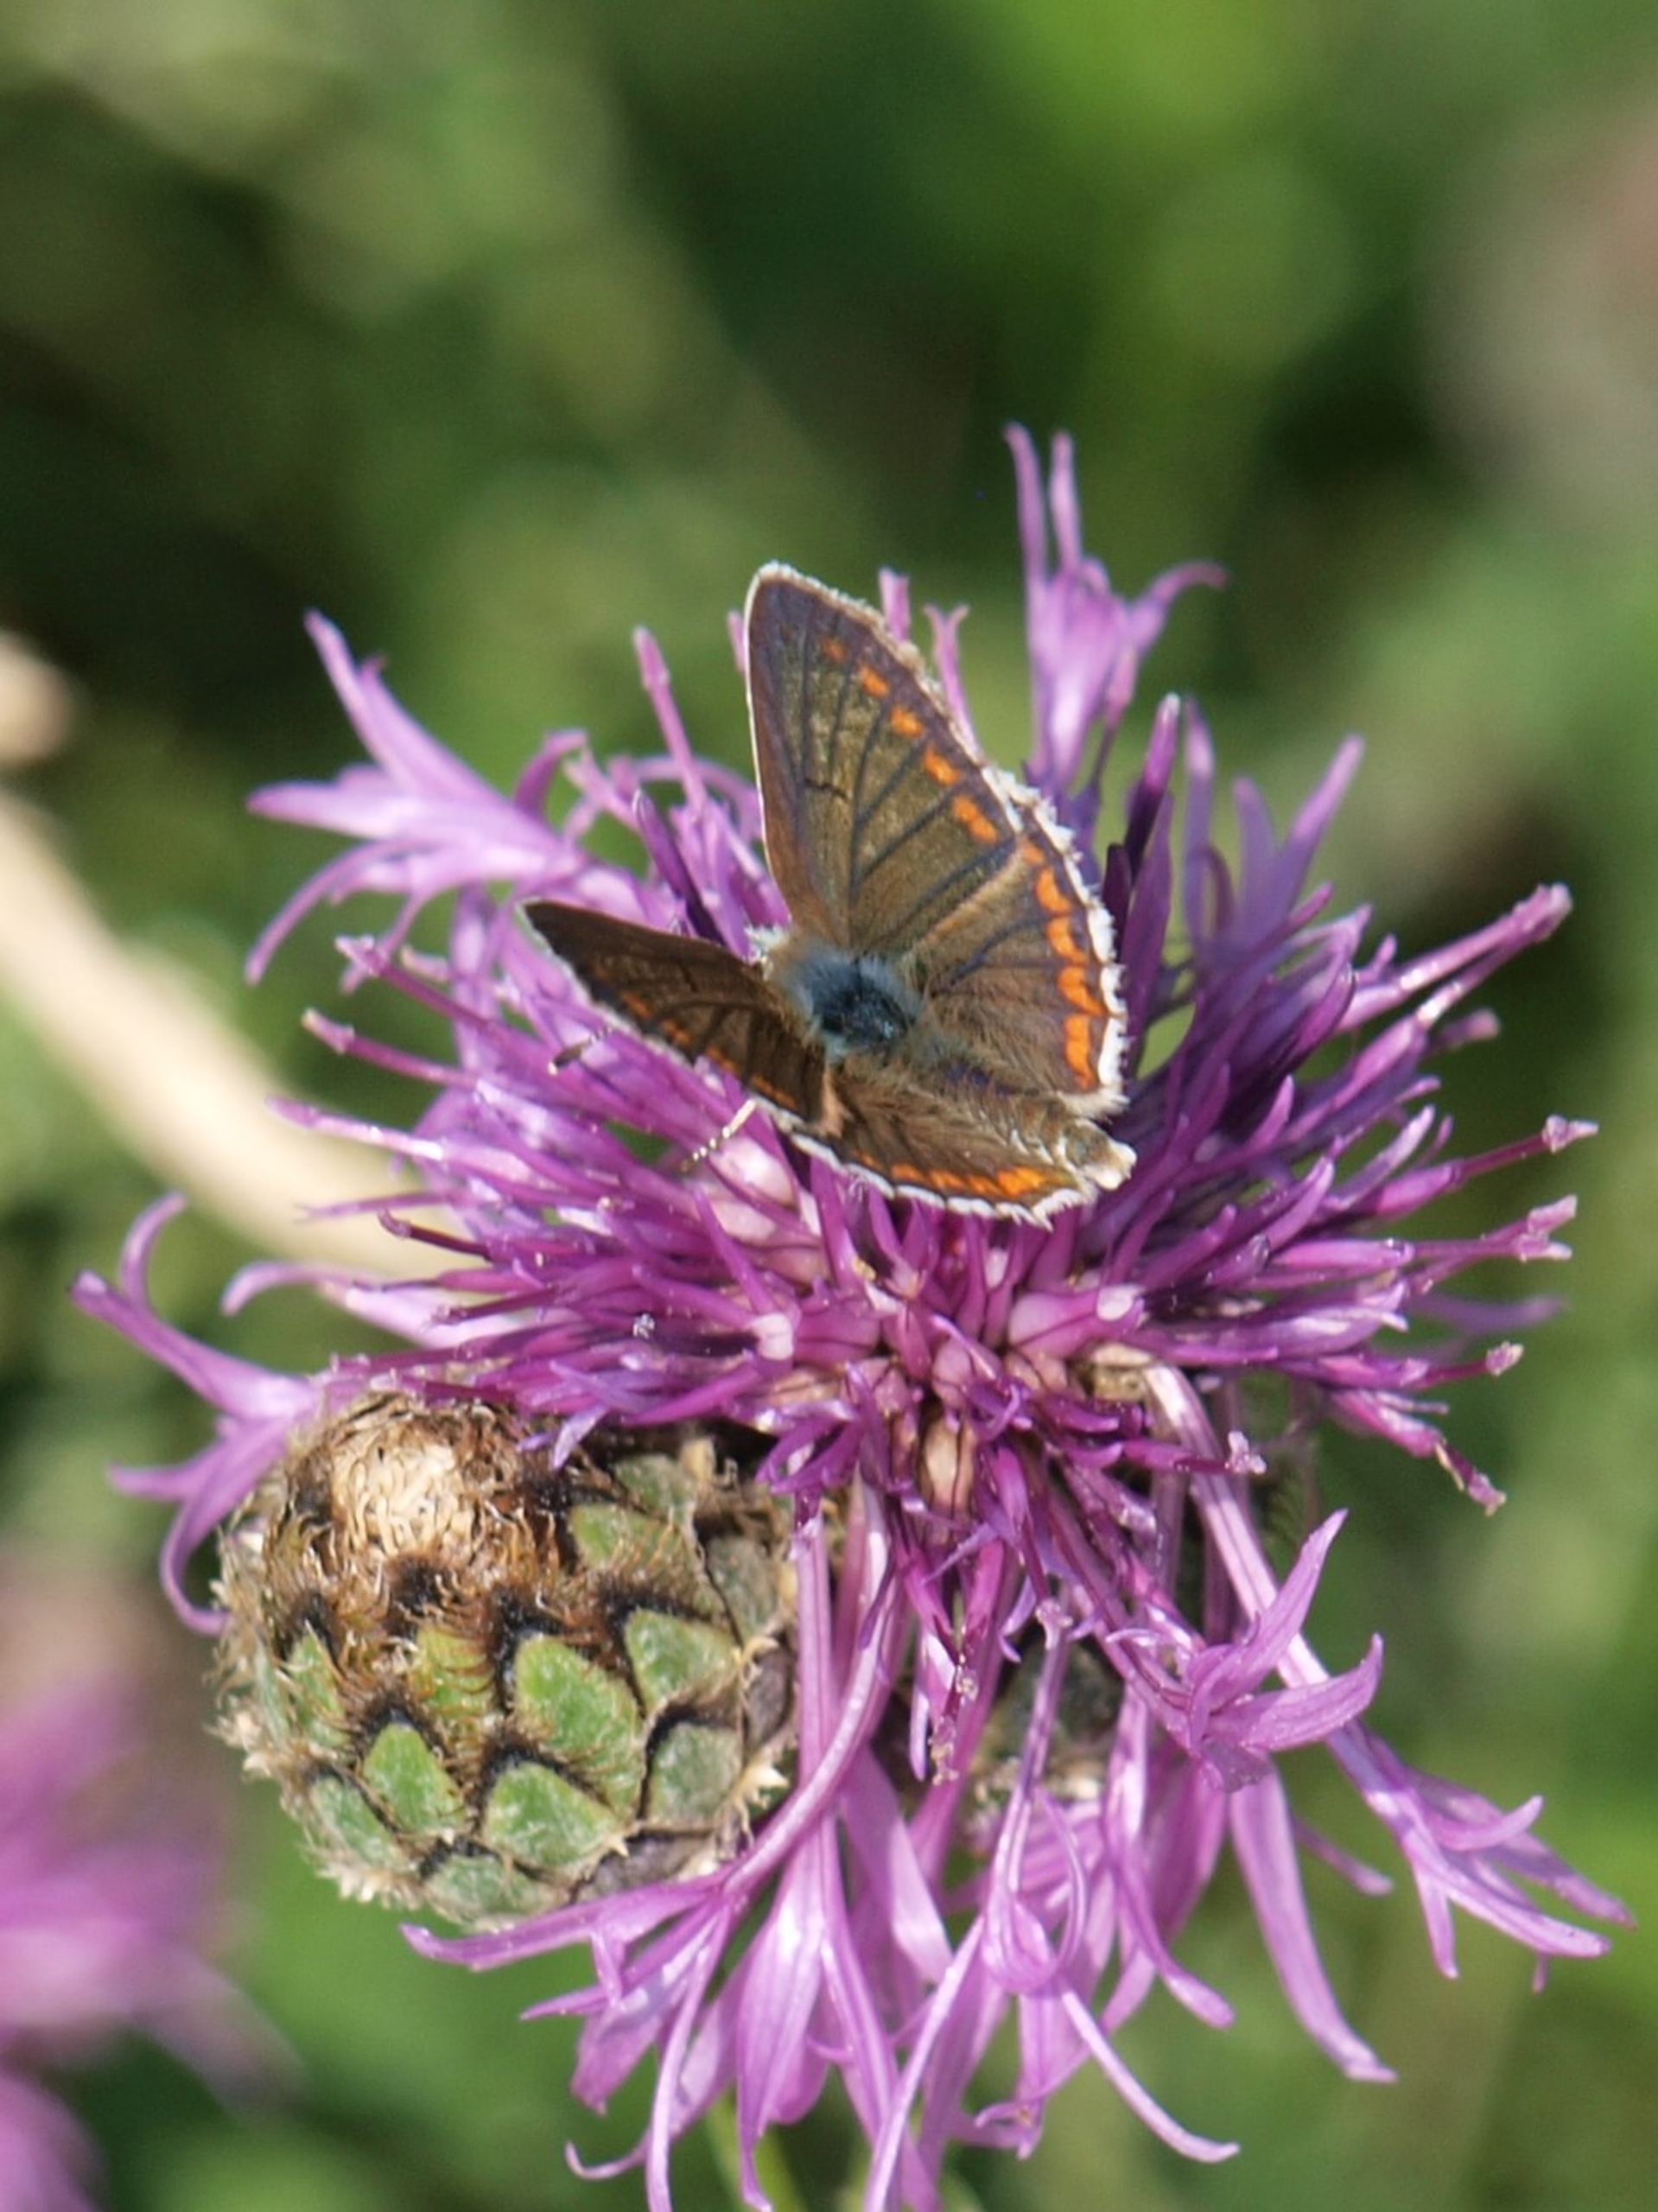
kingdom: Animalia
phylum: Arthropoda
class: Insecta
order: Lepidoptera
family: Lycaenidae
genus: Aricia
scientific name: Aricia agestis
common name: Rødplettet blåfugl
